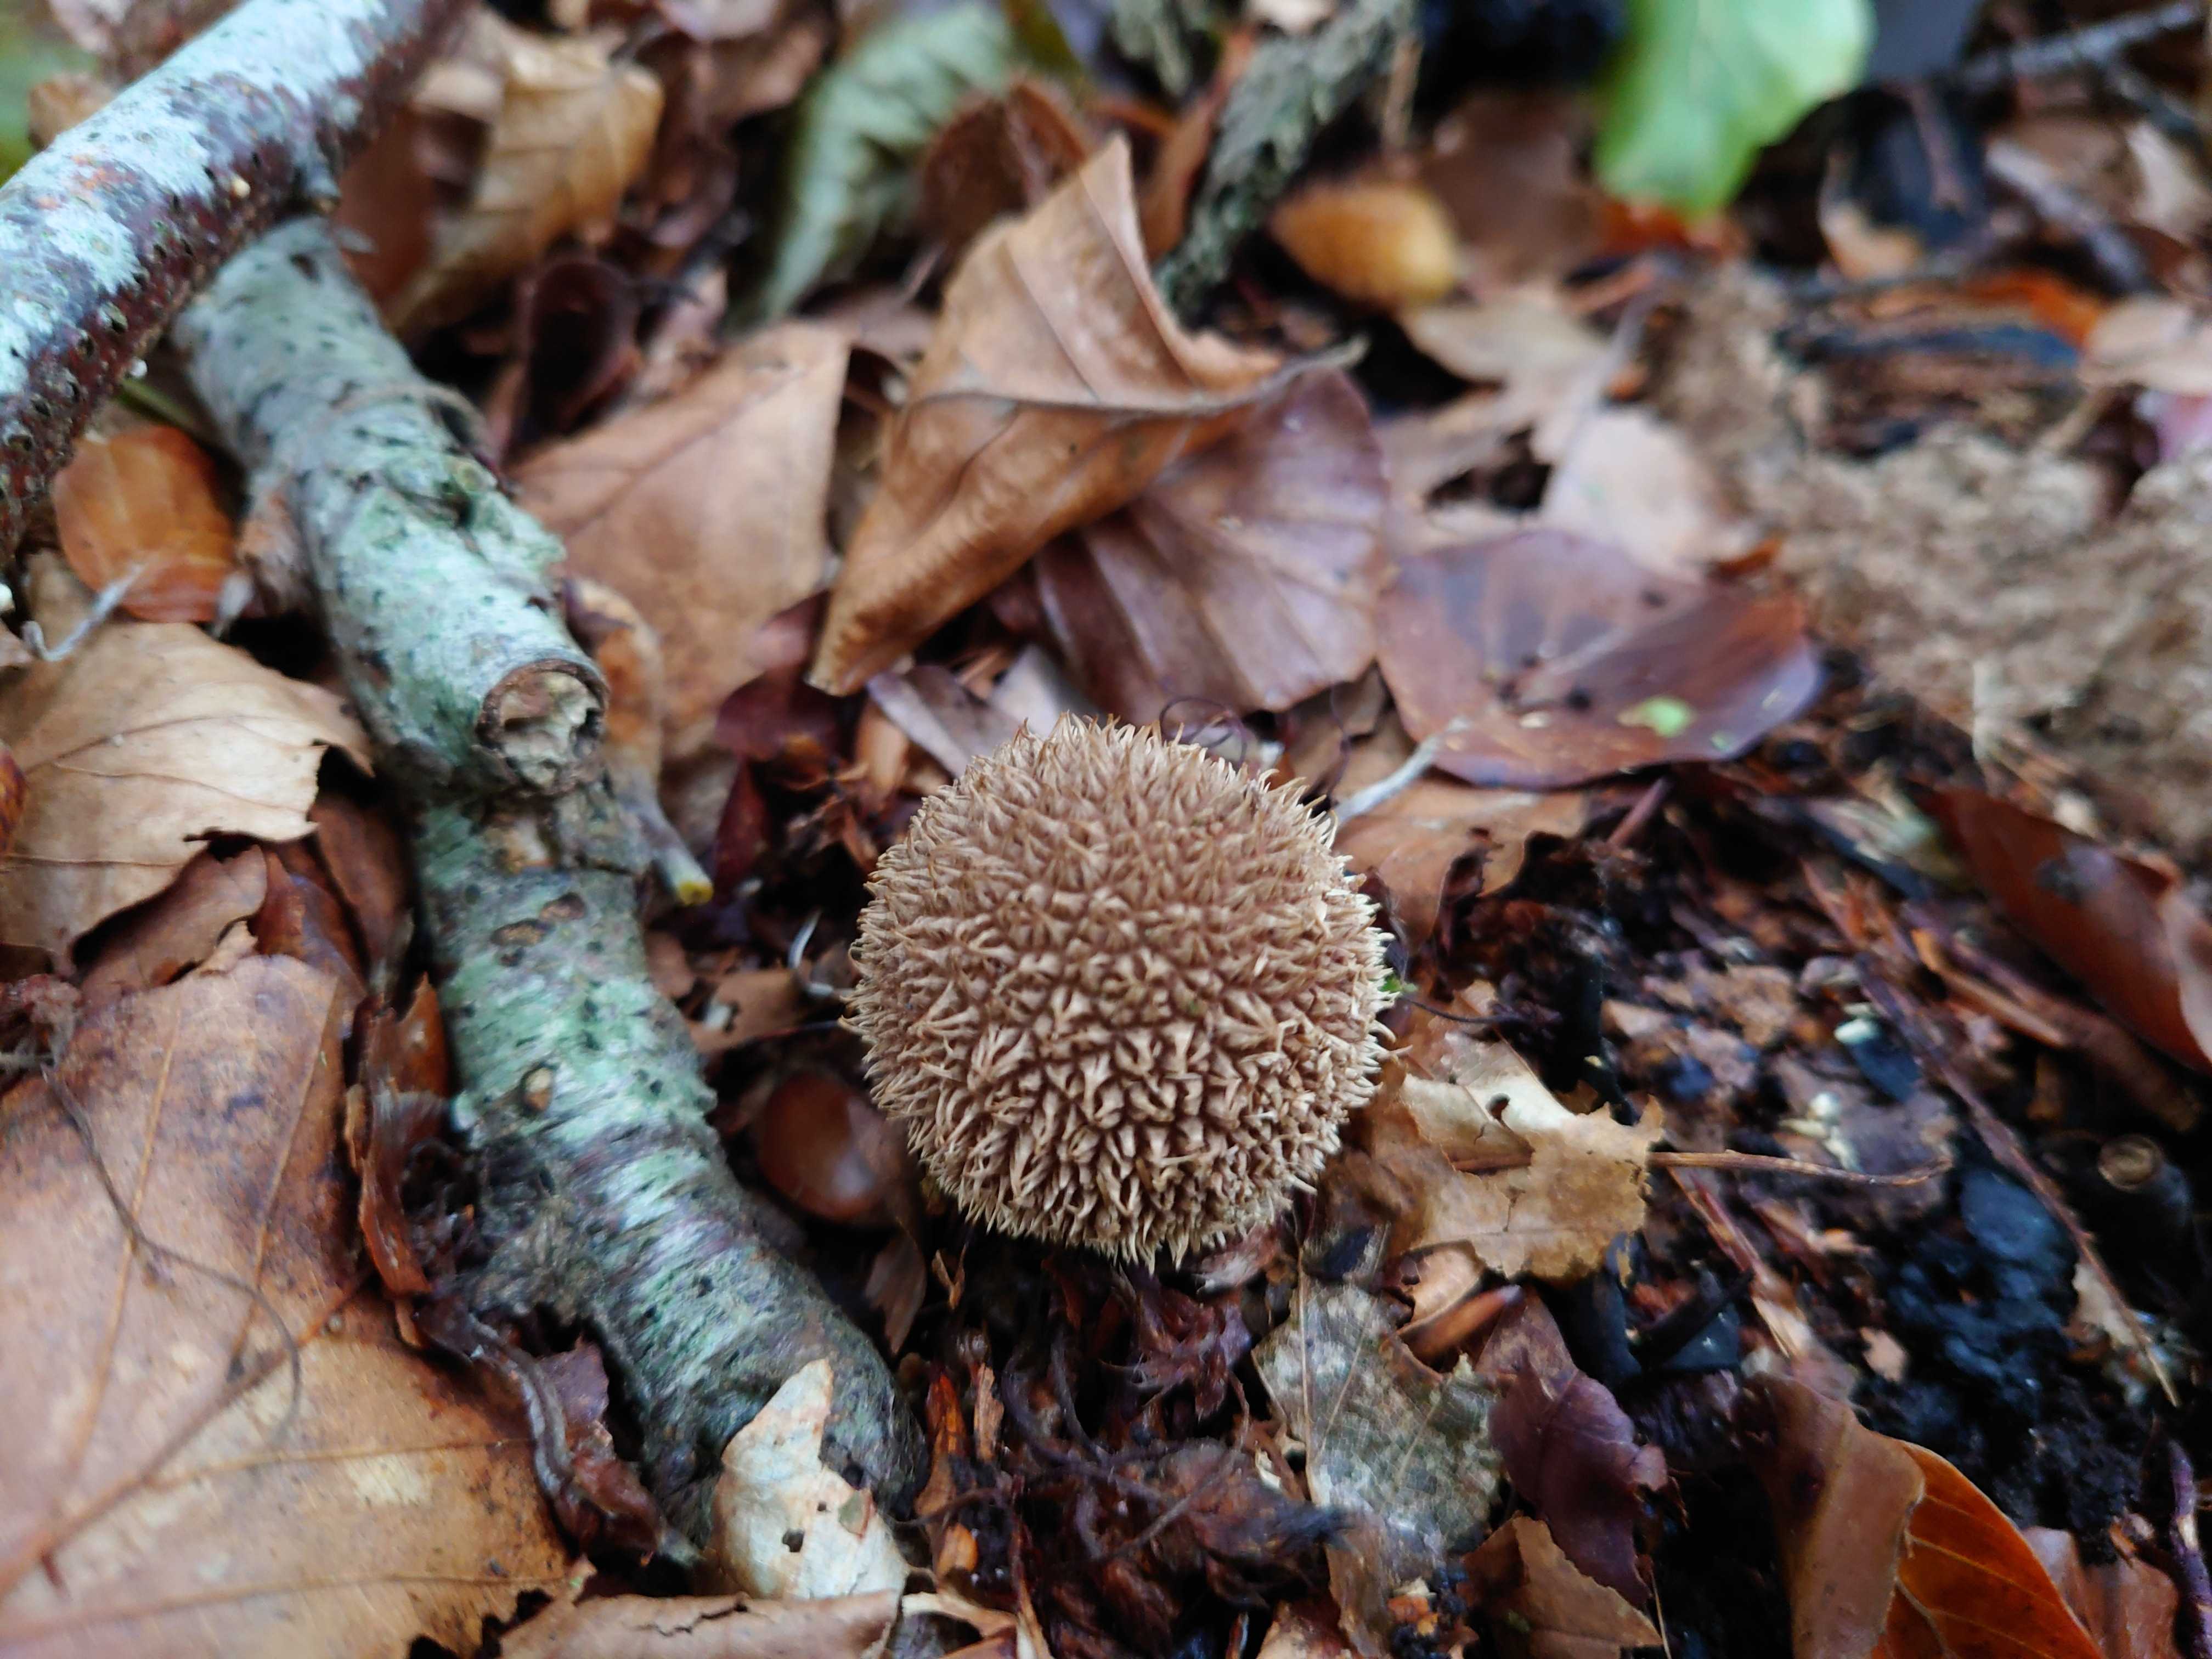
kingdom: Fungi
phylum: Basidiomycota
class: Agaricomycetes
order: Agaricales
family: Lycoperdaceae
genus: Lycoperdon
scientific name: Lycoperdon echinatum
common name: pindsvine-støvbold
